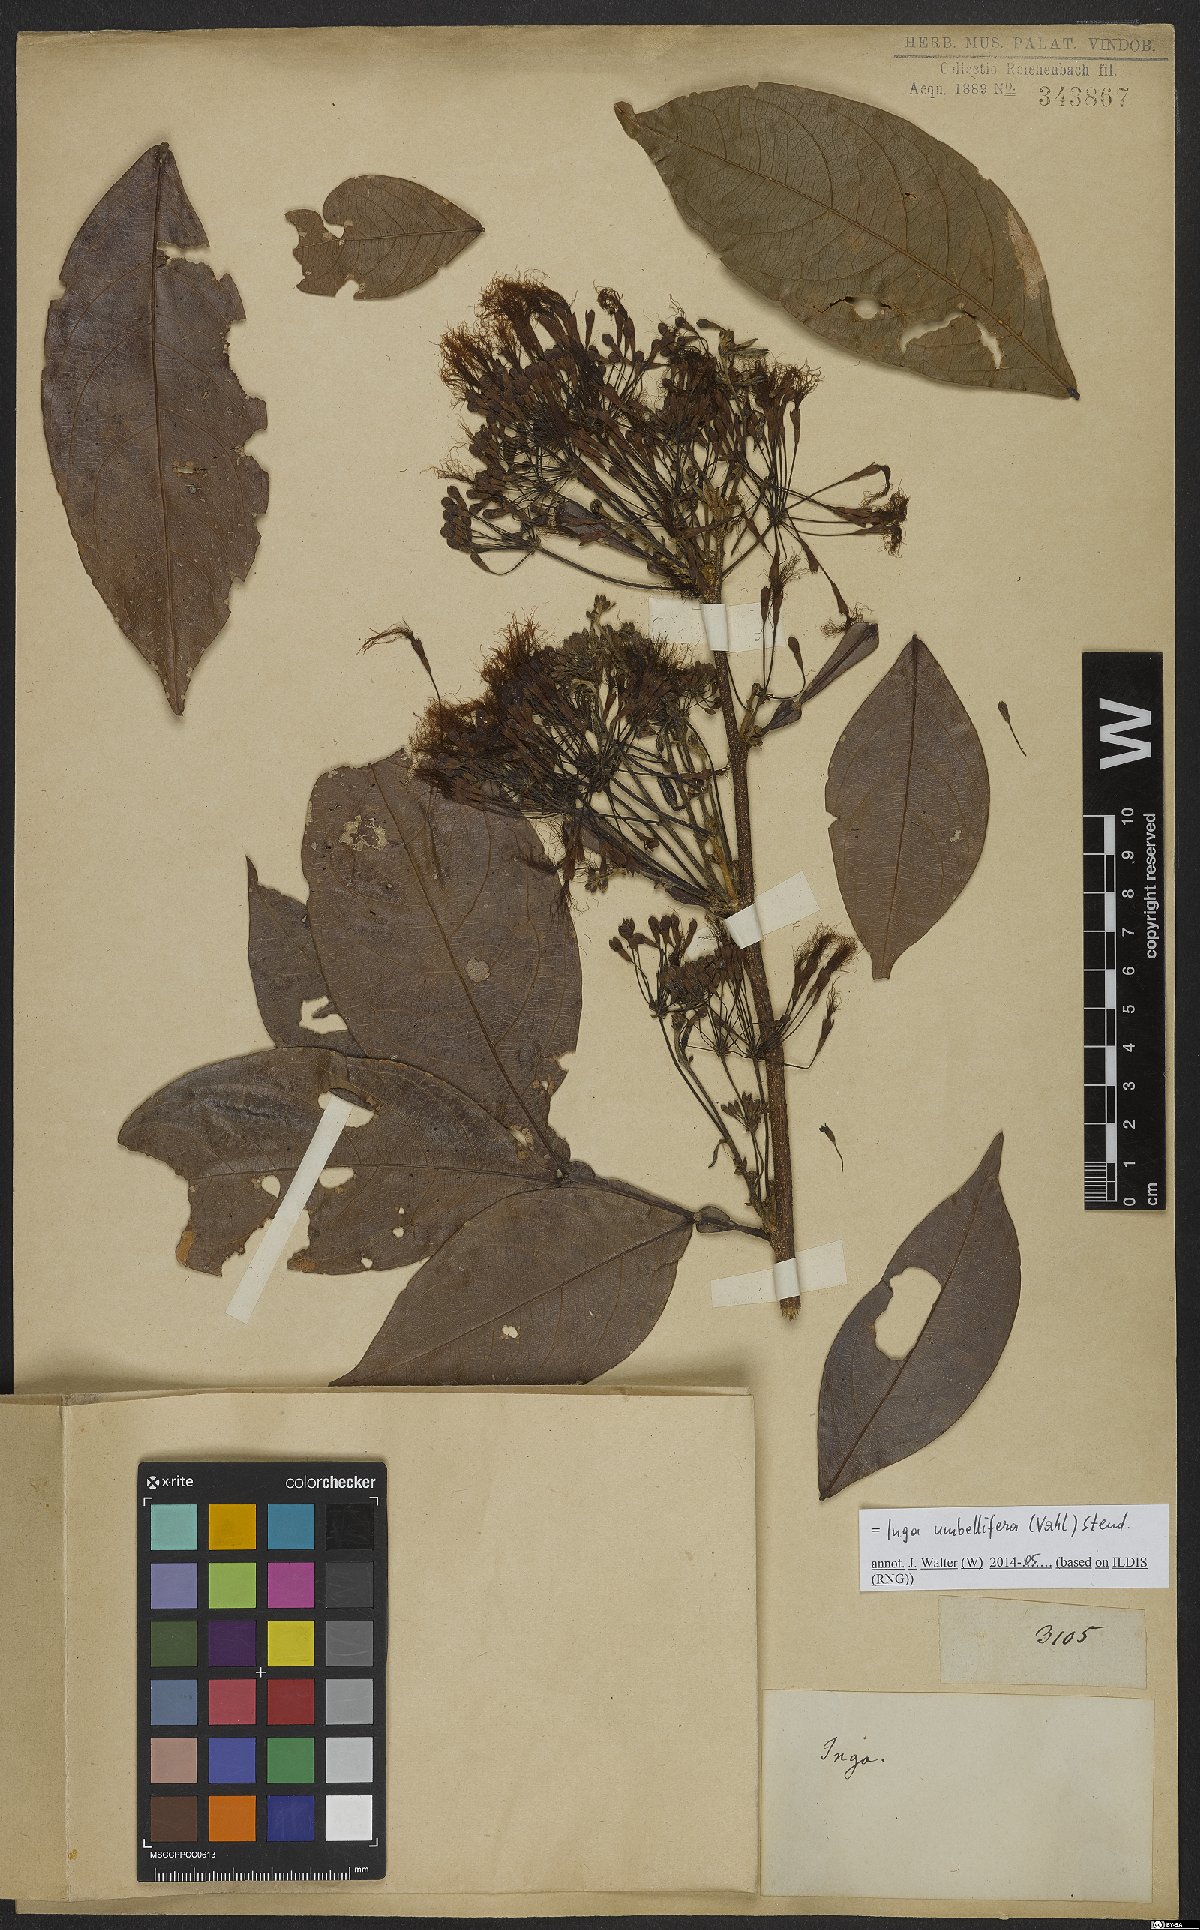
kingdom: Plantae
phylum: Tracheophyta
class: Magnoliopsida
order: Fabales
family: Fabaceae
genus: Inga
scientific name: Inga umbellifera
